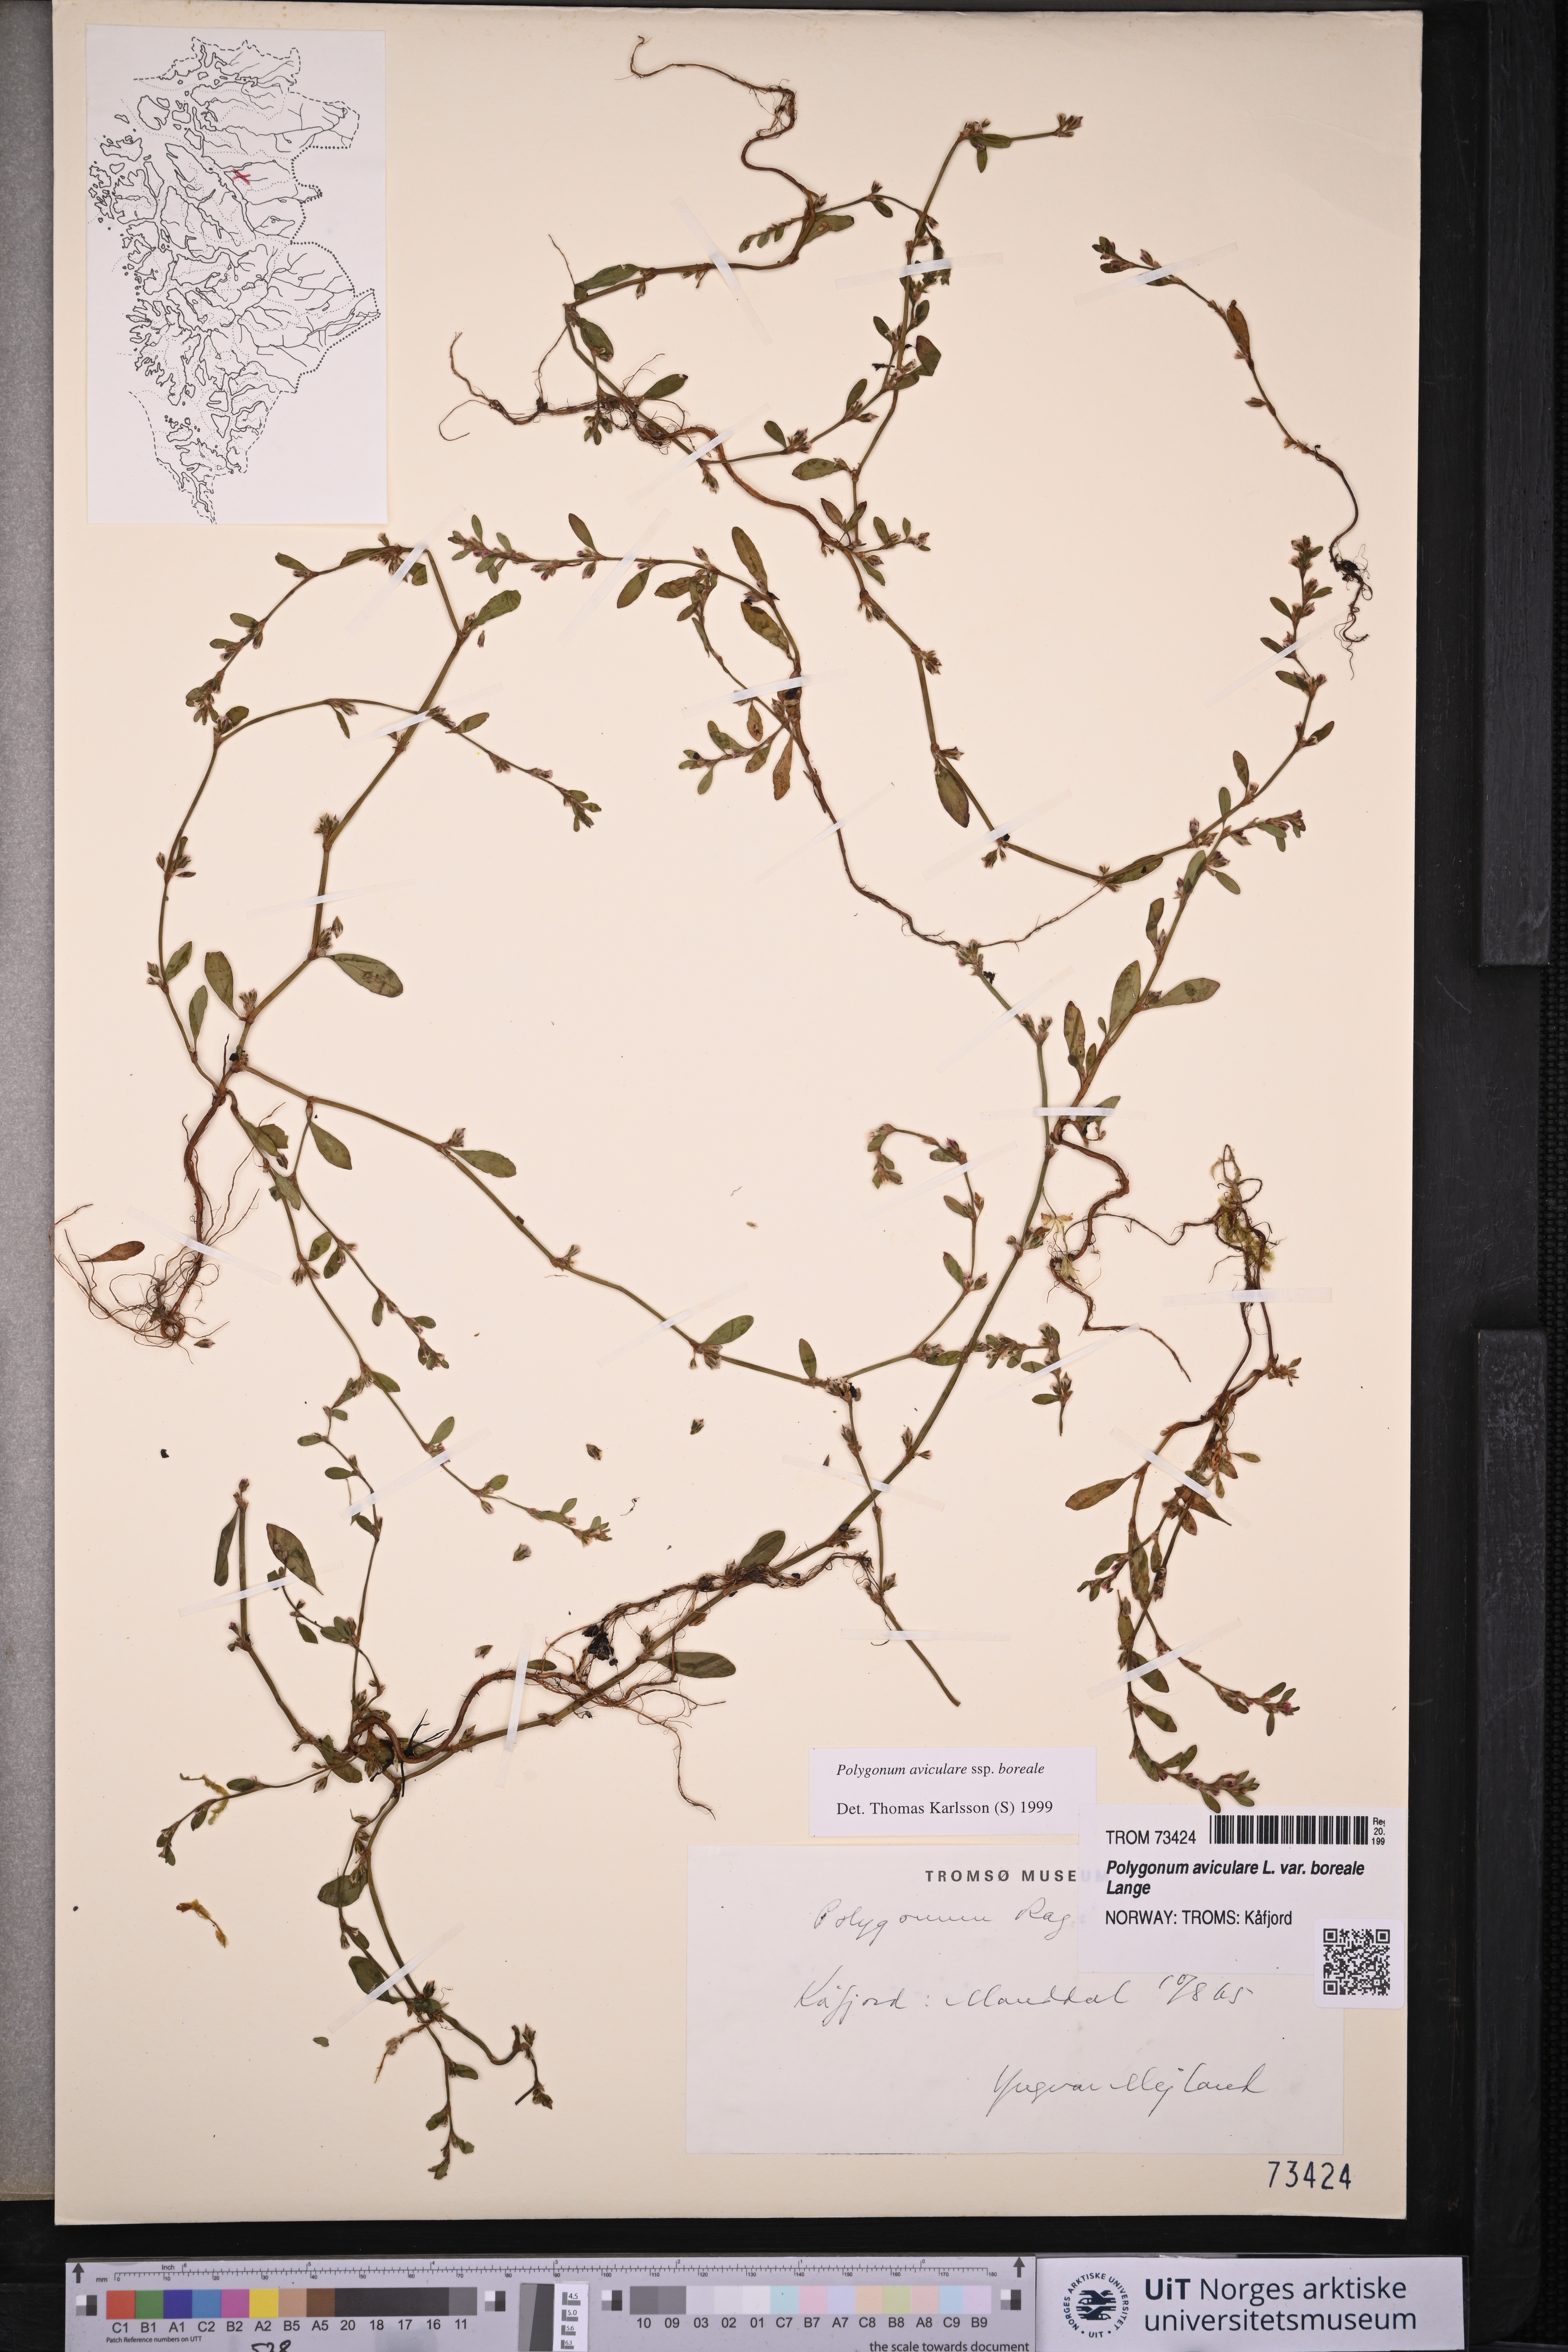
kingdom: Plantae
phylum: Tracheophyta
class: Magnoliopsida
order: Caryophyllales
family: Polygonaceae
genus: Polygonum
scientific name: Polygonum boreale
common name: Northern knotgrass
